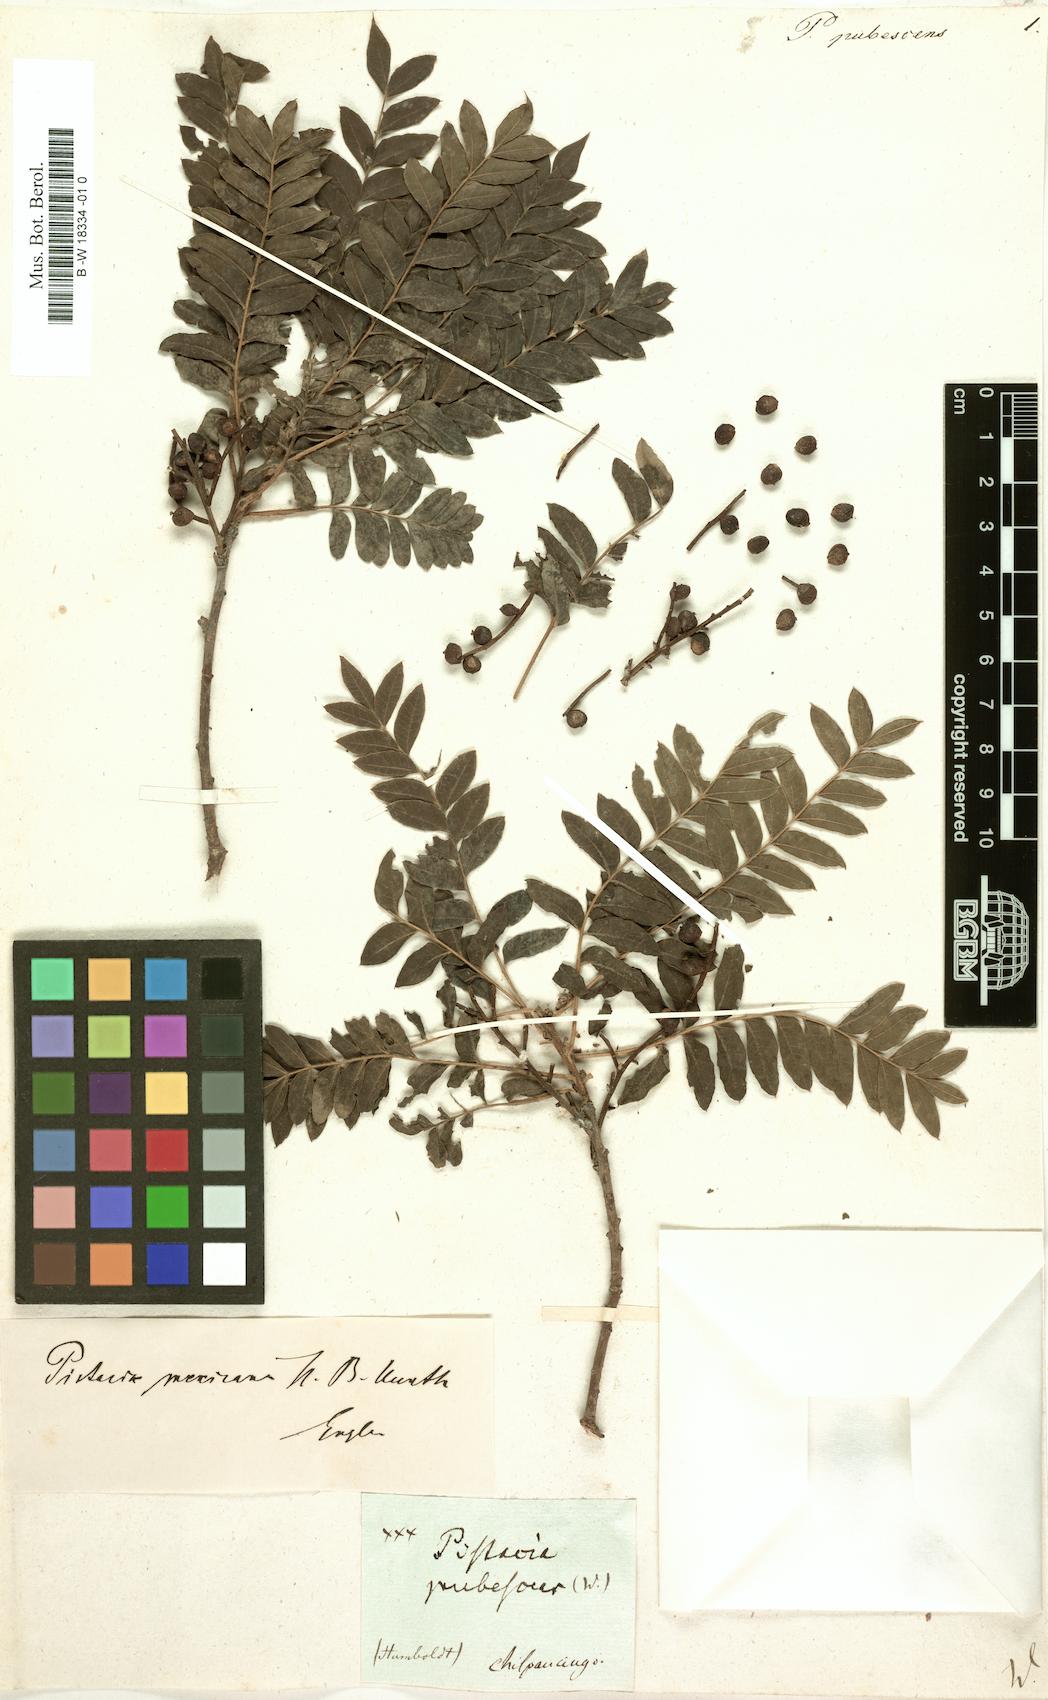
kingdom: Plantae
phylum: Tracheophyta
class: Magnoliopsida
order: Sapindales
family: Anacardiaceae
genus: Pistacia
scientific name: Pistacia
